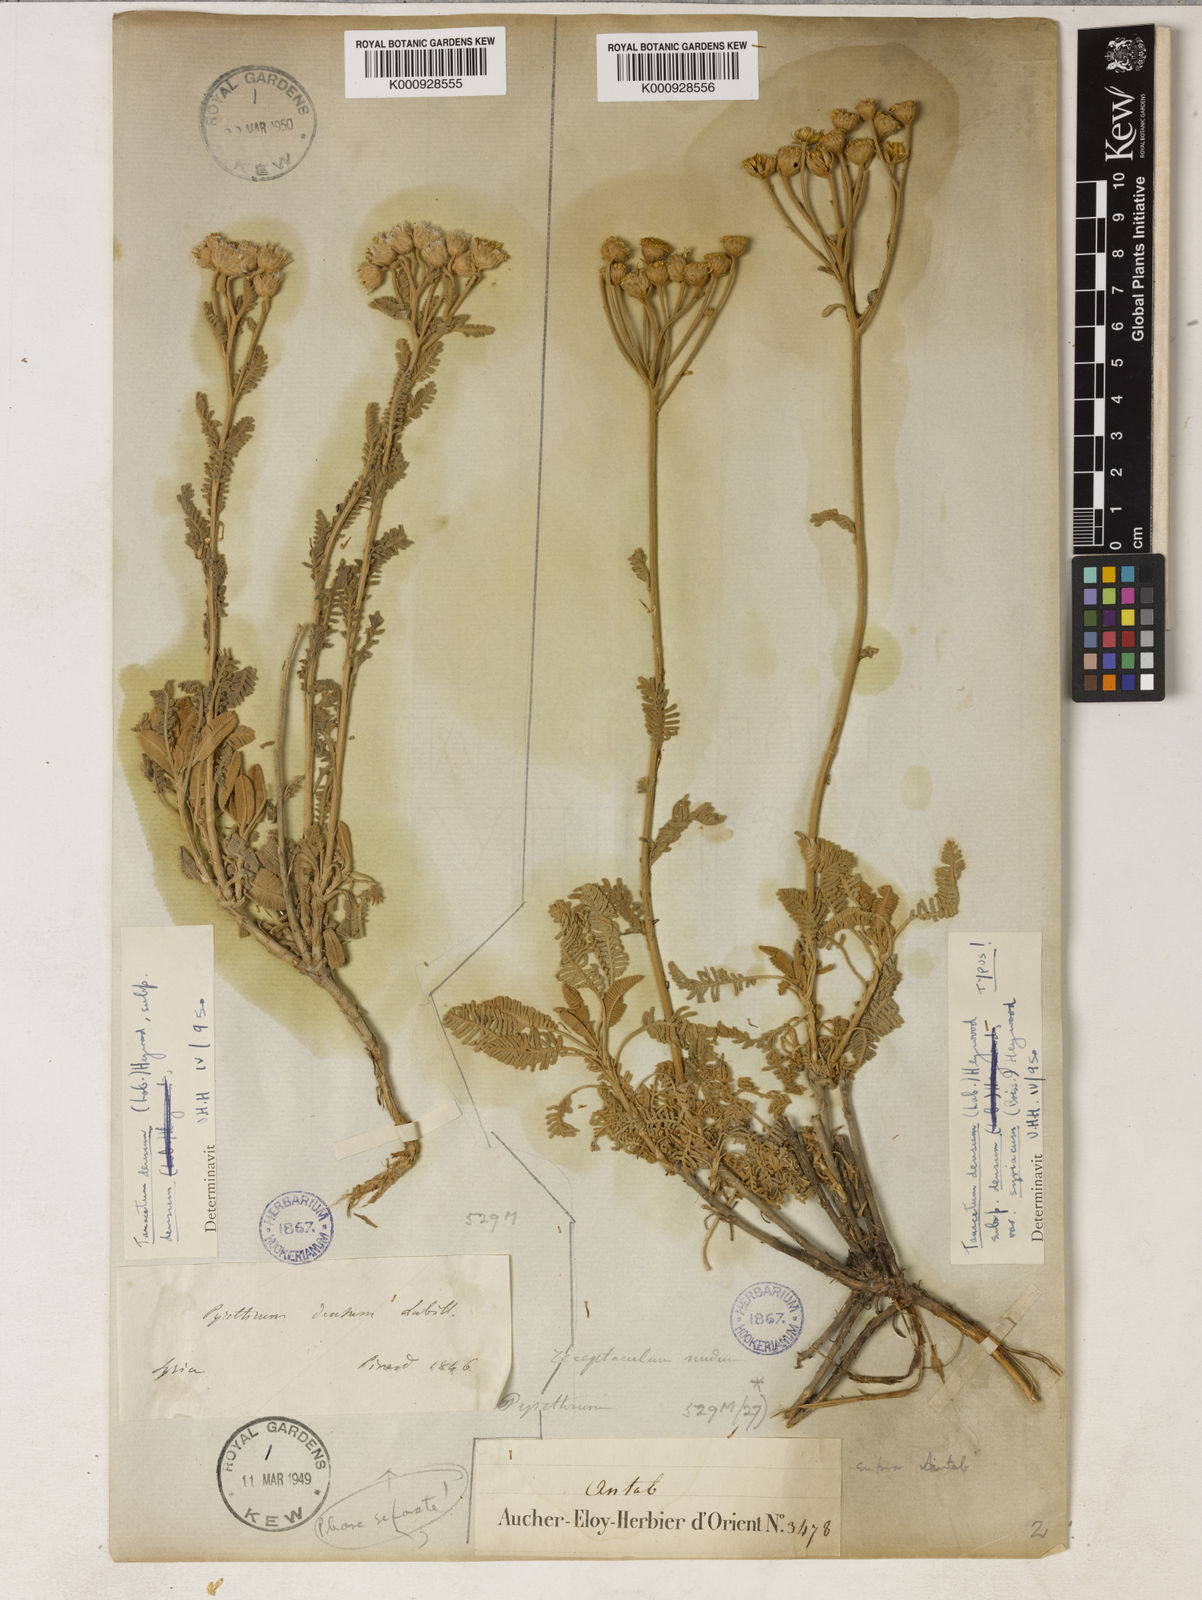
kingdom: Plantae
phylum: Tracheophyta
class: Magnoliopsida
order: Asterales
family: Asteraceae
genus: Tanacetum
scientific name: Tanacetum densum
